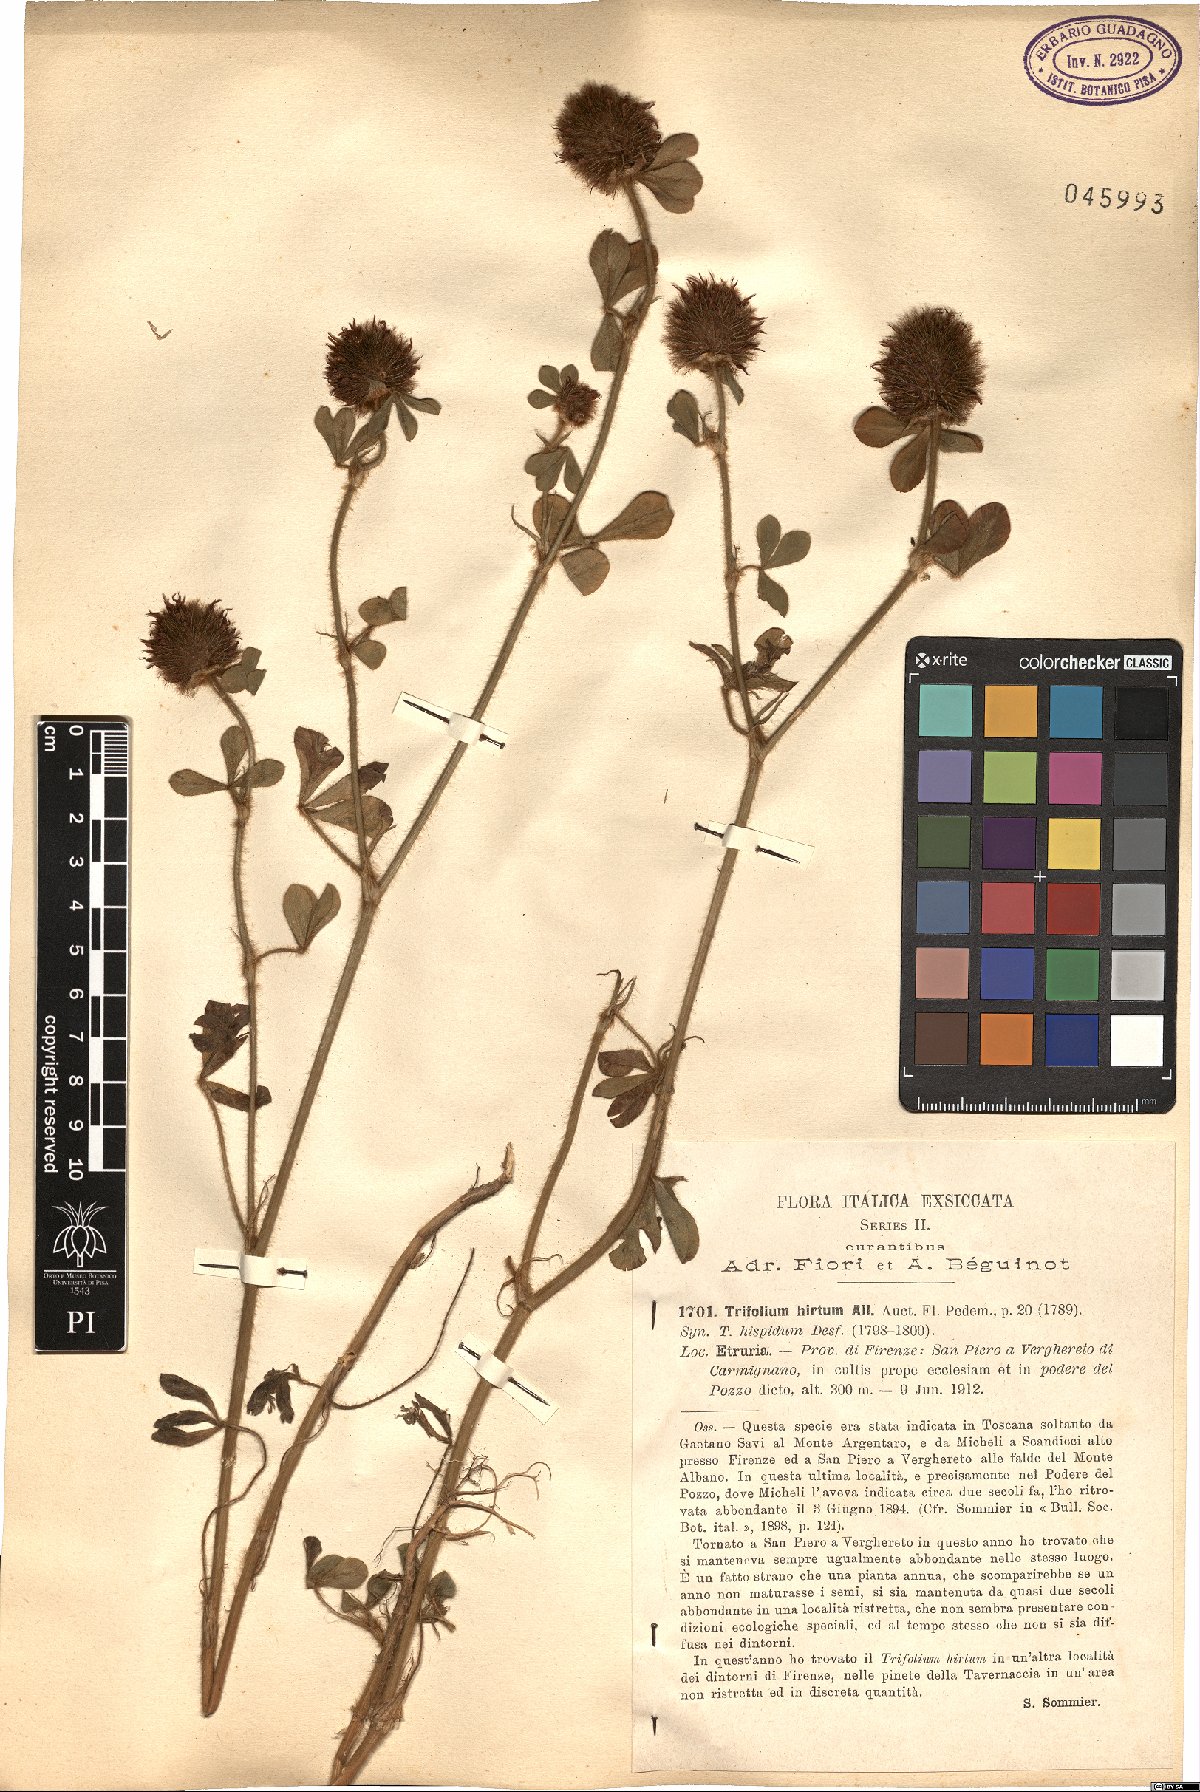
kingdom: Plantae
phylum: Tracheophyta
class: Magnoliopsida
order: Fabales
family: Fabaceae
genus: Trifolium
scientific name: Trifolium hirtum
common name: Rose clover
